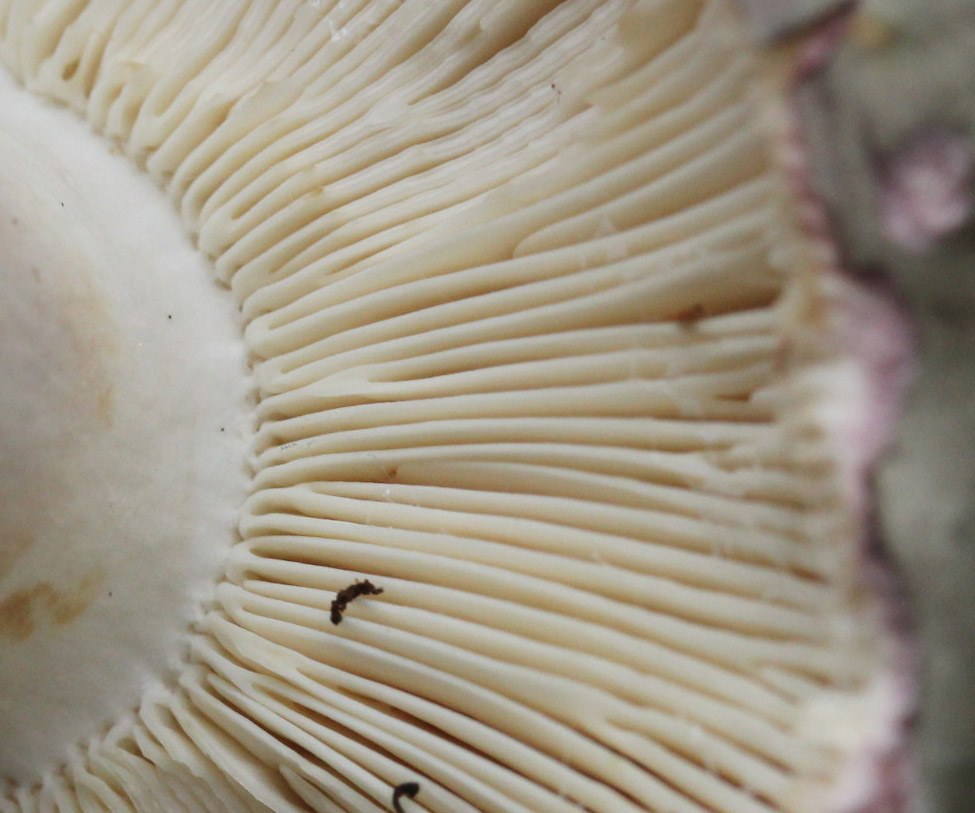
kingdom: Fungi
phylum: Basidiomycota
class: Agaricomycetes
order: Russulales
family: Russulaceae
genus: Russula
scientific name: Russula heterophylla
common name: gaffelbladet skørhat
